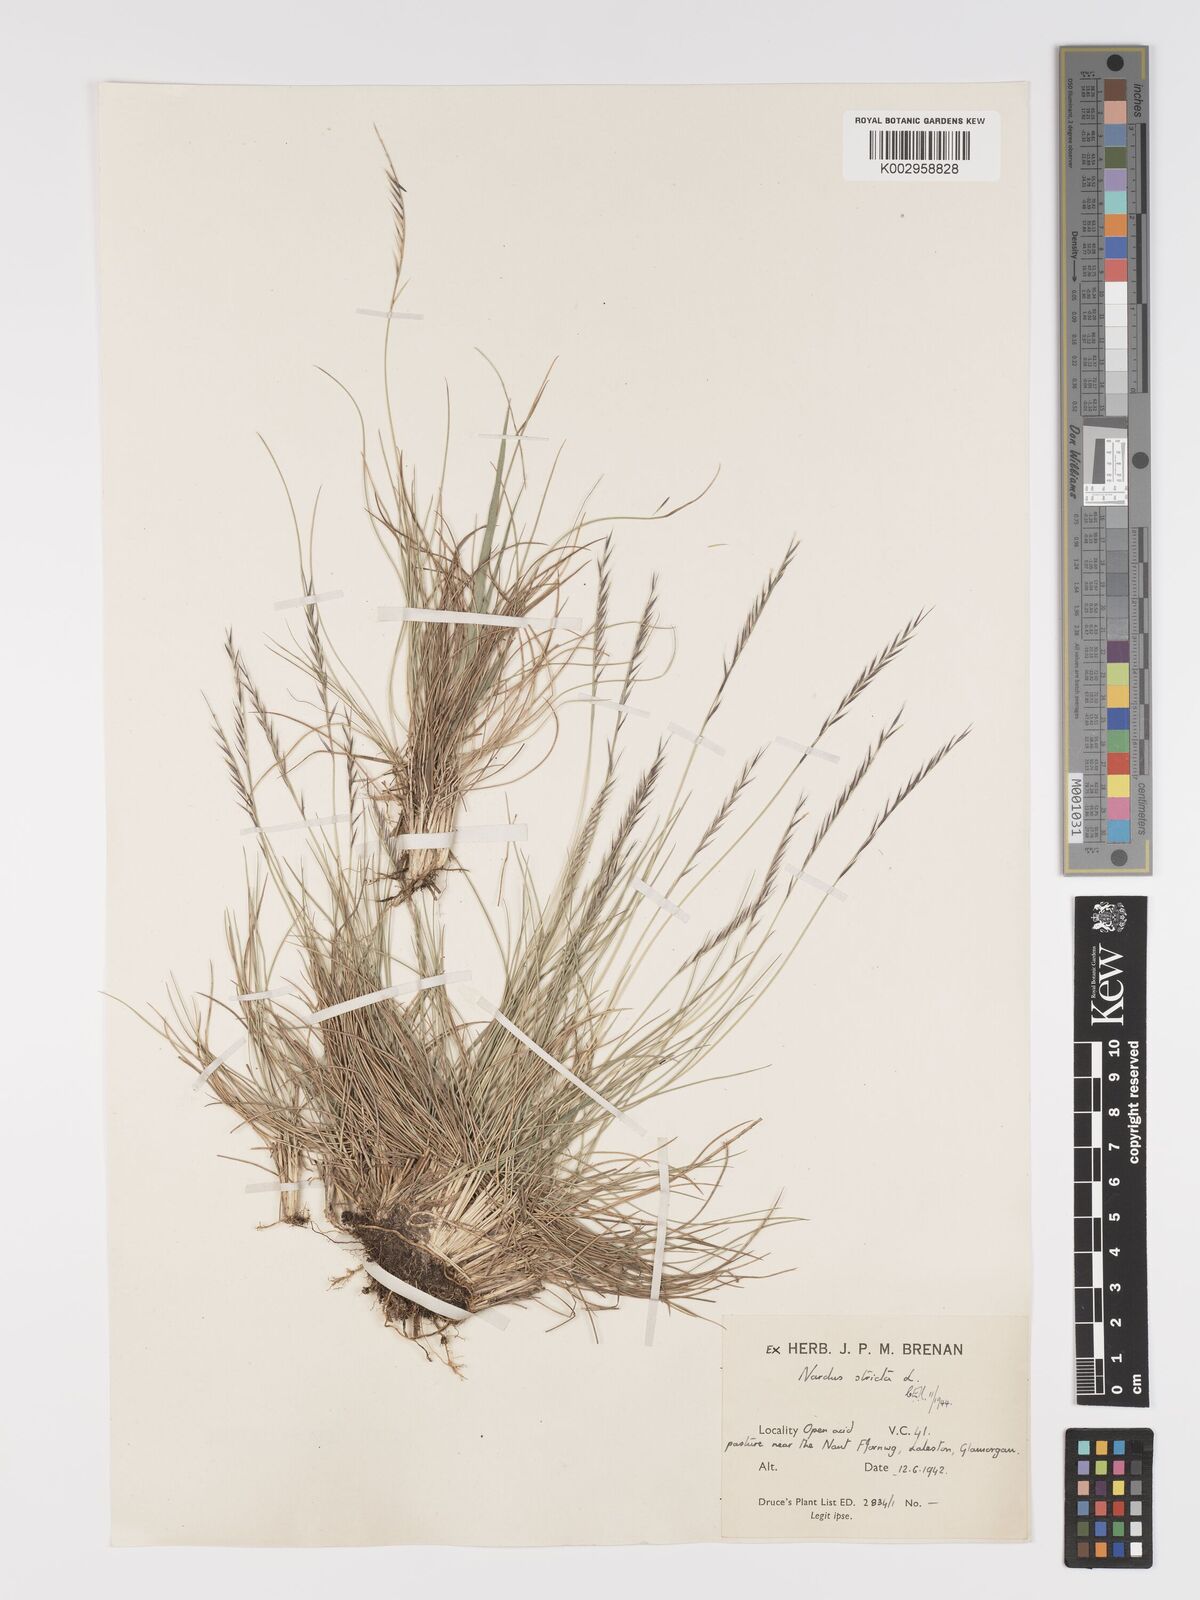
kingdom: Plantae
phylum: Tracheophyta
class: Liliopsida
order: Poales
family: Poaceae
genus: Nardus
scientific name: Nardus stricta
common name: Mat-grass
